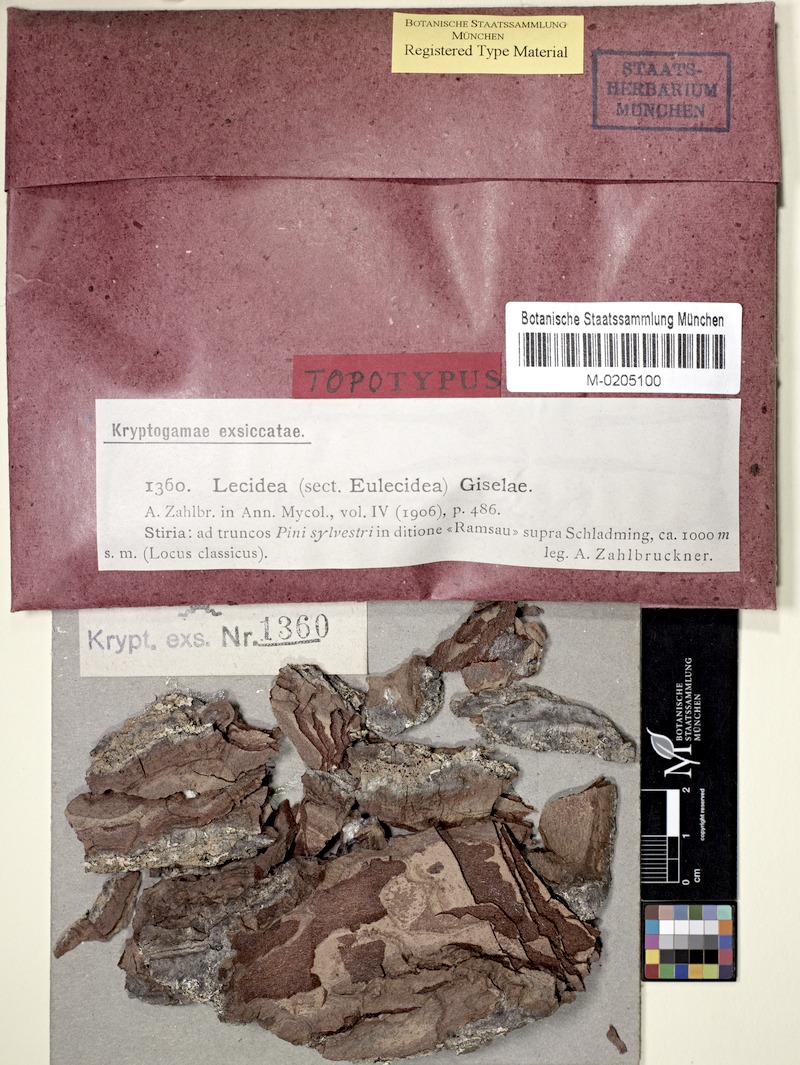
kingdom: Fungi
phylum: Ascomycota
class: Lecanoromycetes
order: Lecideales
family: Lecideaceae
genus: Lecidea
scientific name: Lecidea giselae
